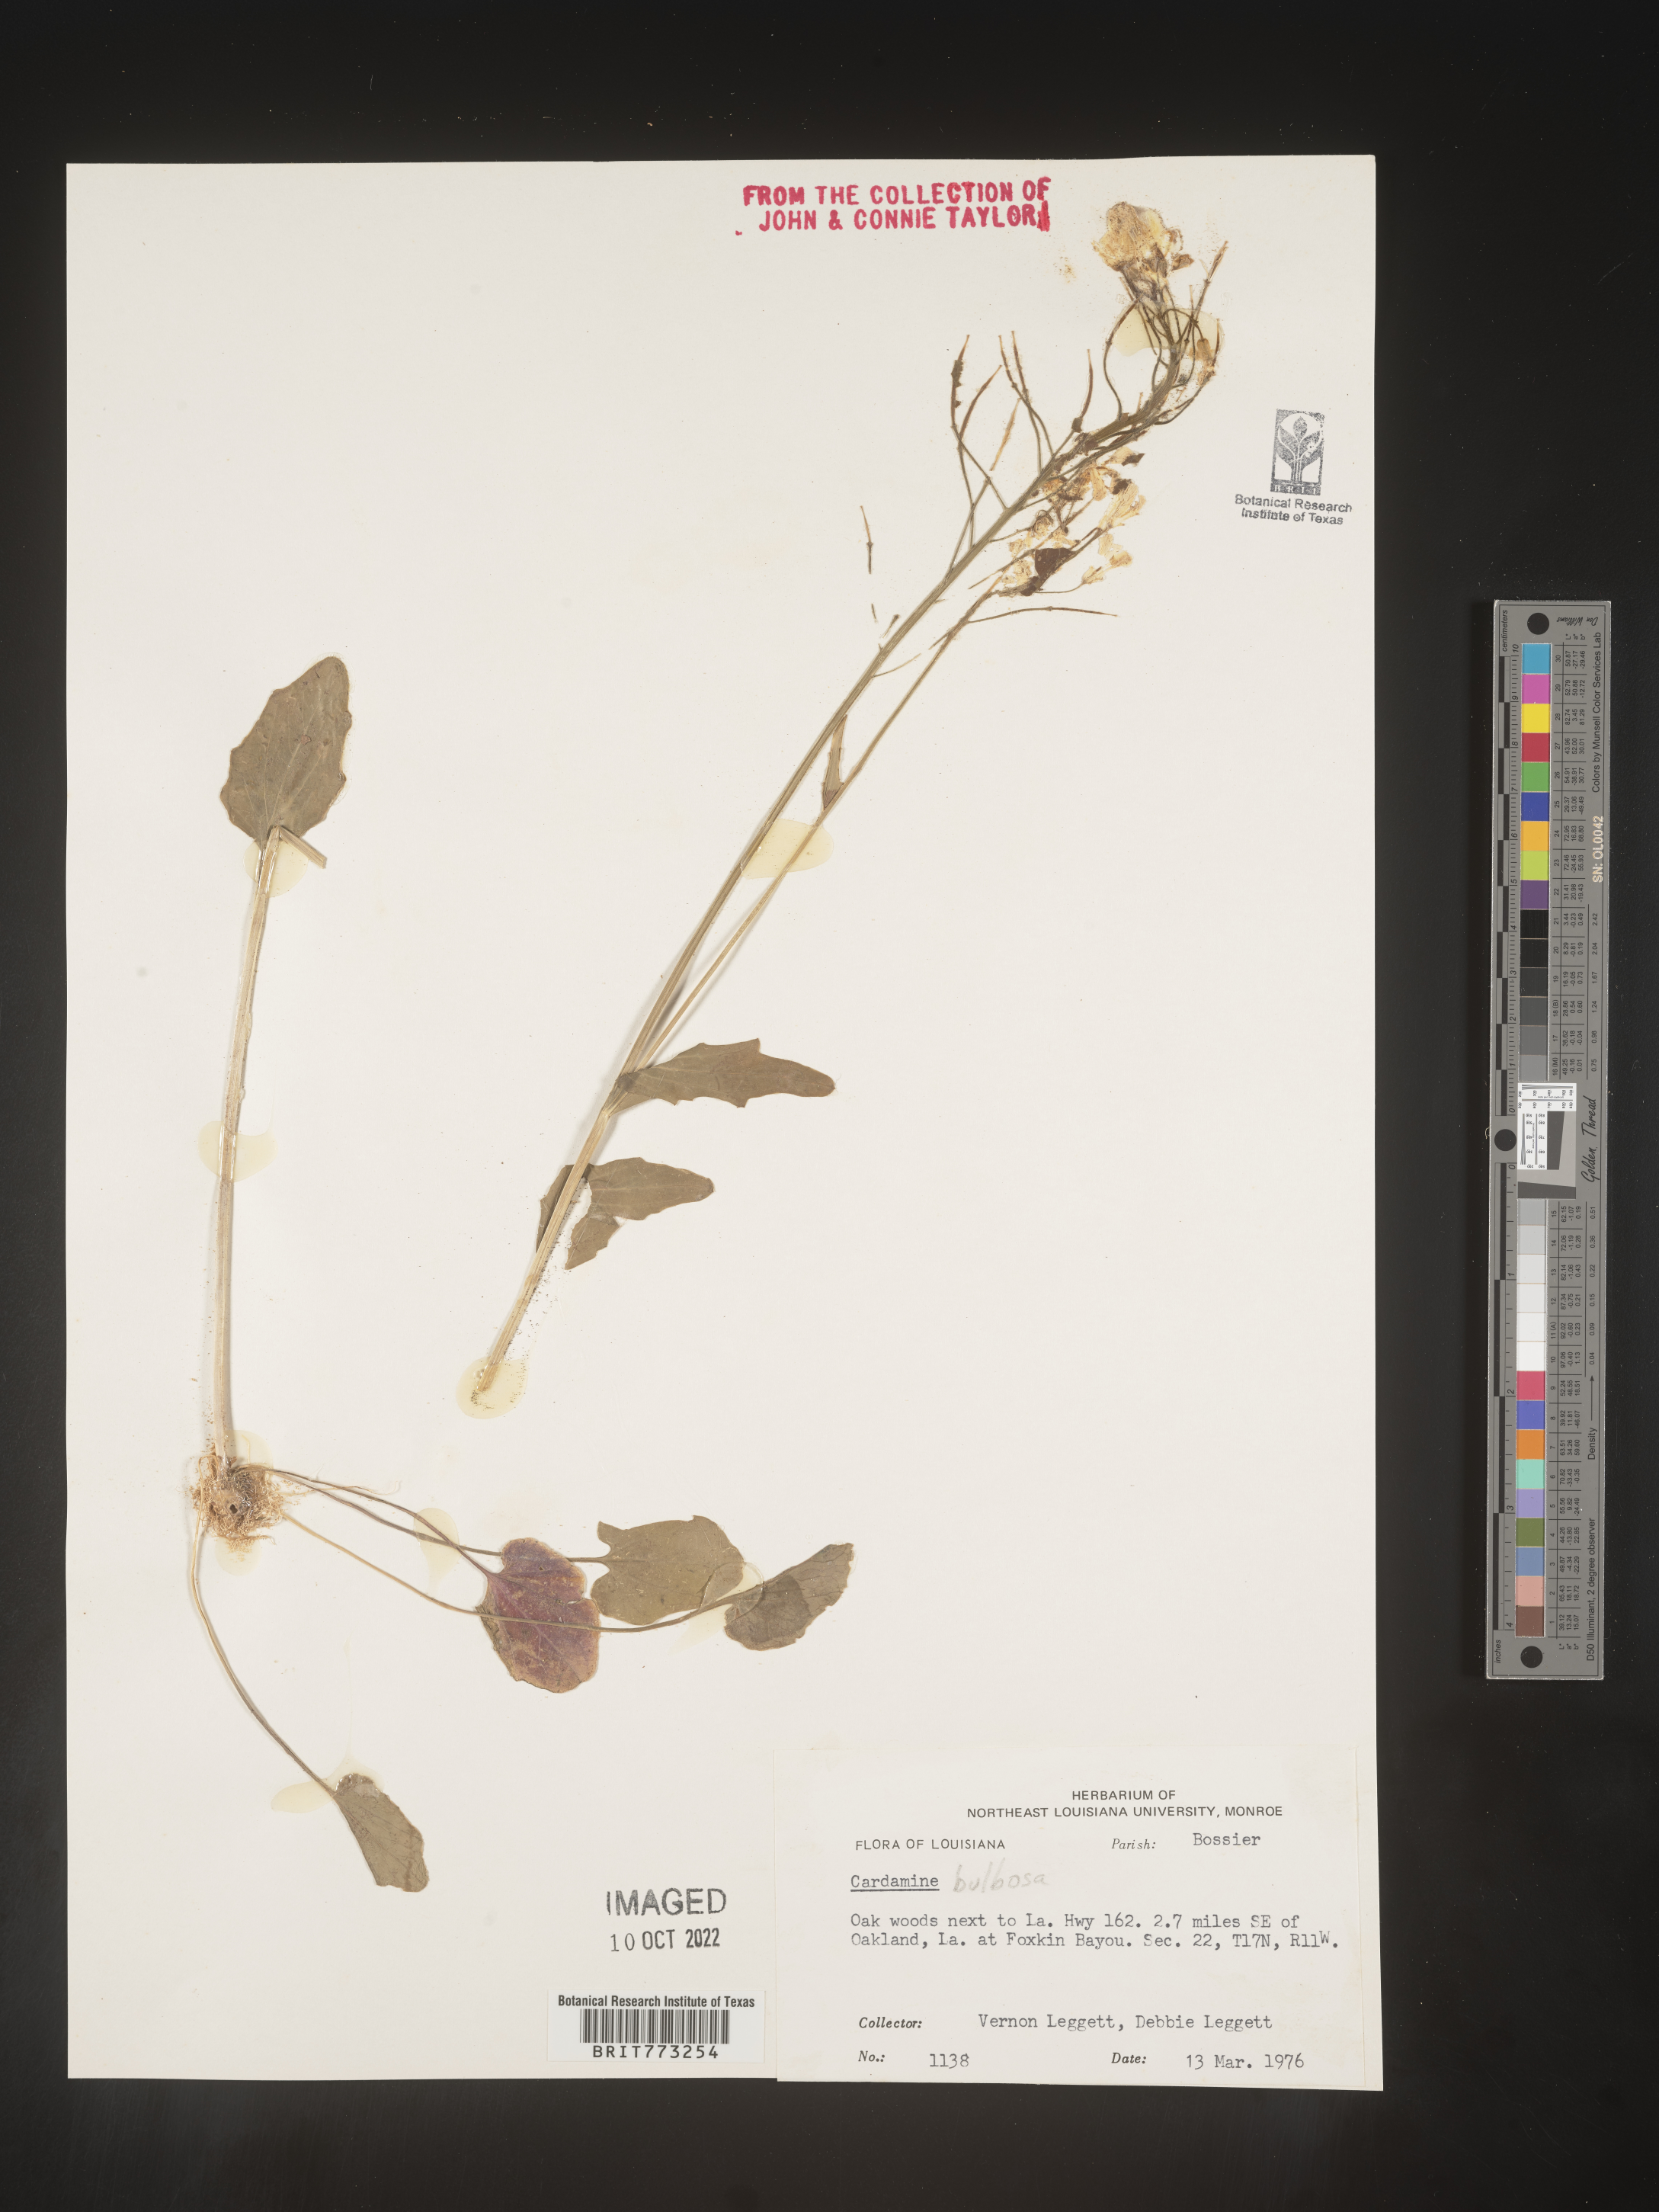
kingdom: Plantae
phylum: Tracheophyta
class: Magnoliopsida
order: Brassicales
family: Brassicaceae
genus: Cardamine
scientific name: Cardamine bulbosa
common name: Spring cress
